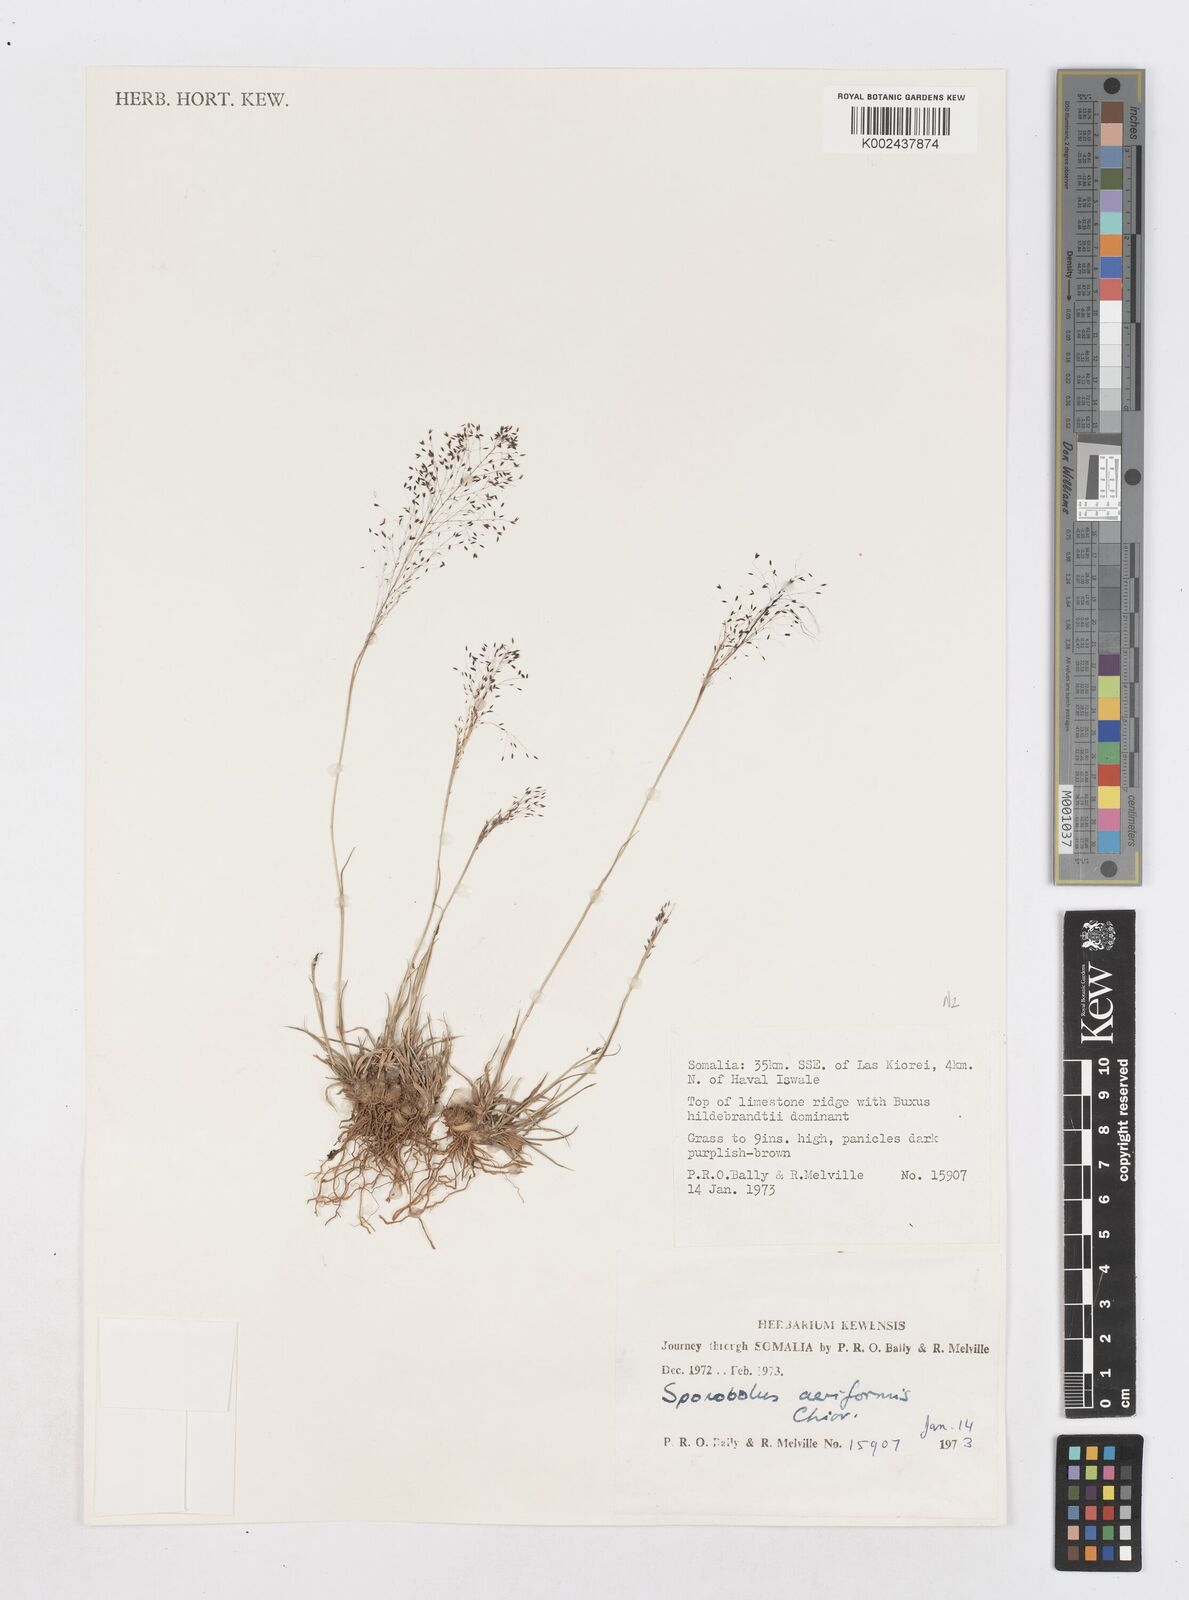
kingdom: Plantae
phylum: Tracheophyta
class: Liliopsida
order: Poales
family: Poaceae
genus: Sporobolus
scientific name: Sporobolus airiformis
